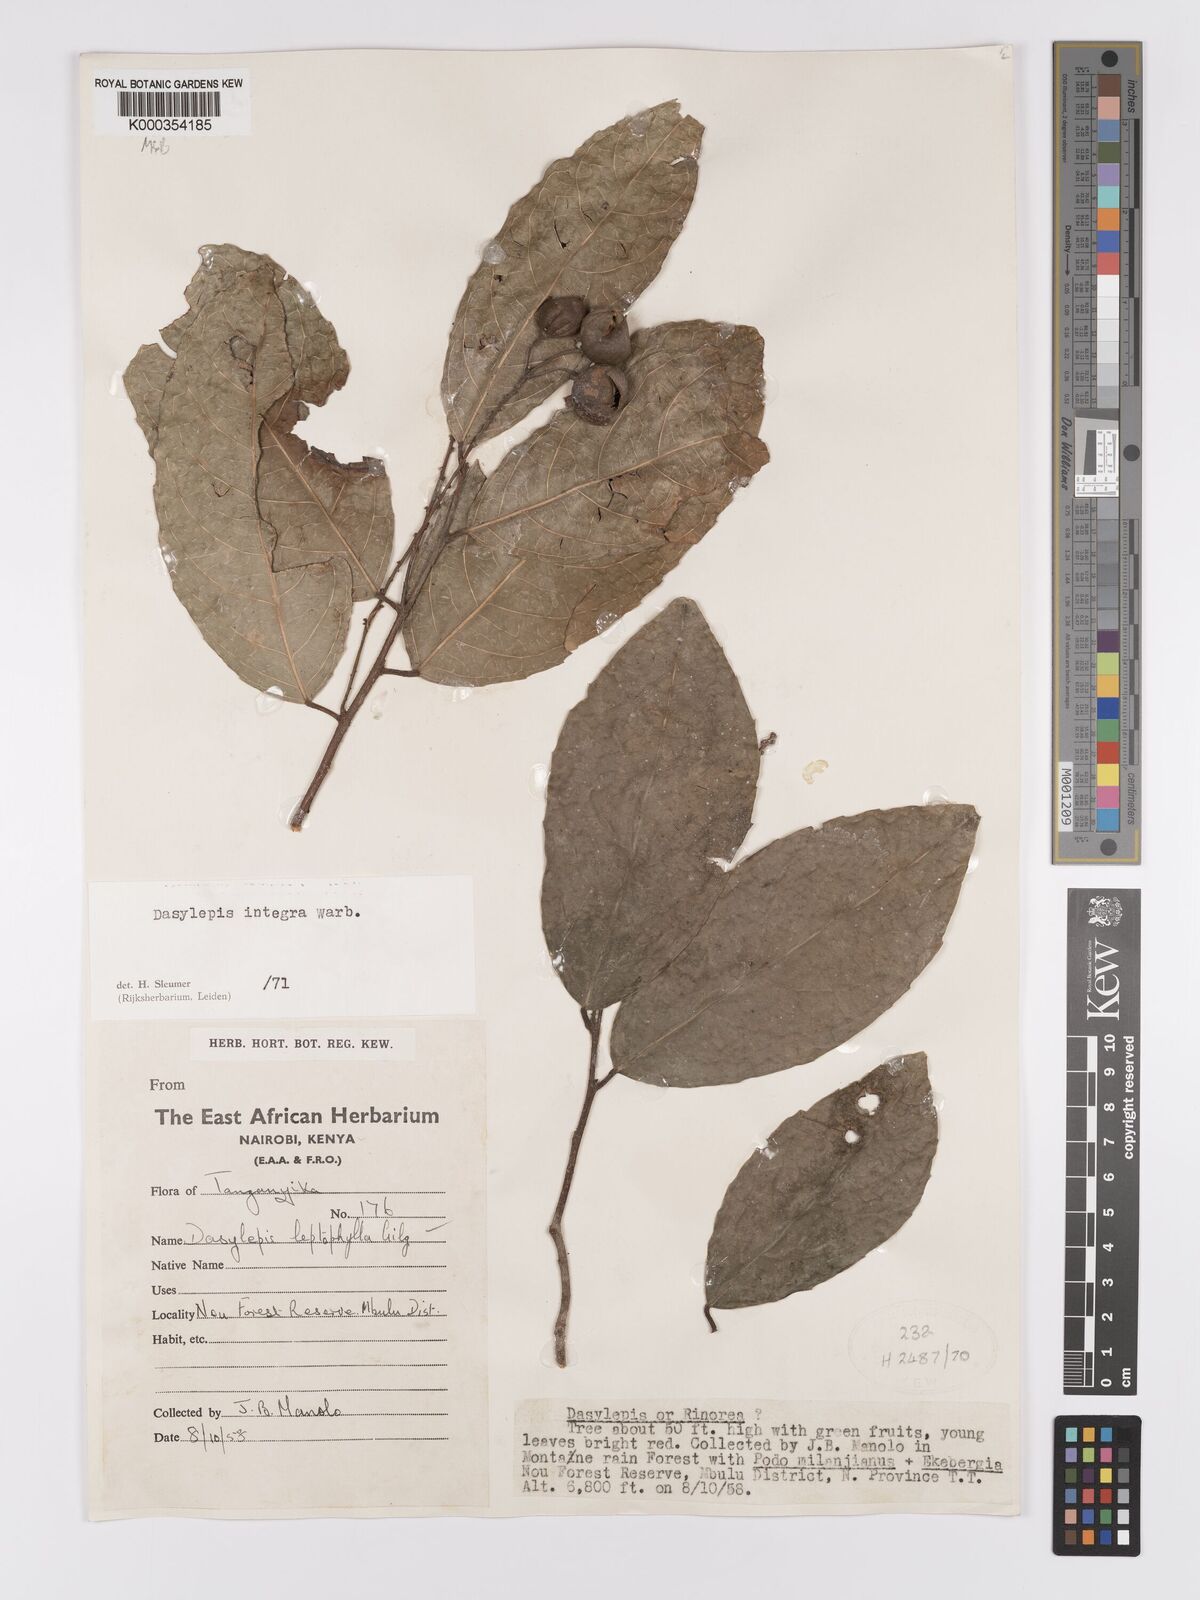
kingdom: Plantae
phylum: Tracheophyta
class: Magnoliopsida
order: Malpighiales
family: Achariaceae
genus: Dasylepis
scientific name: Dasylepis integra
